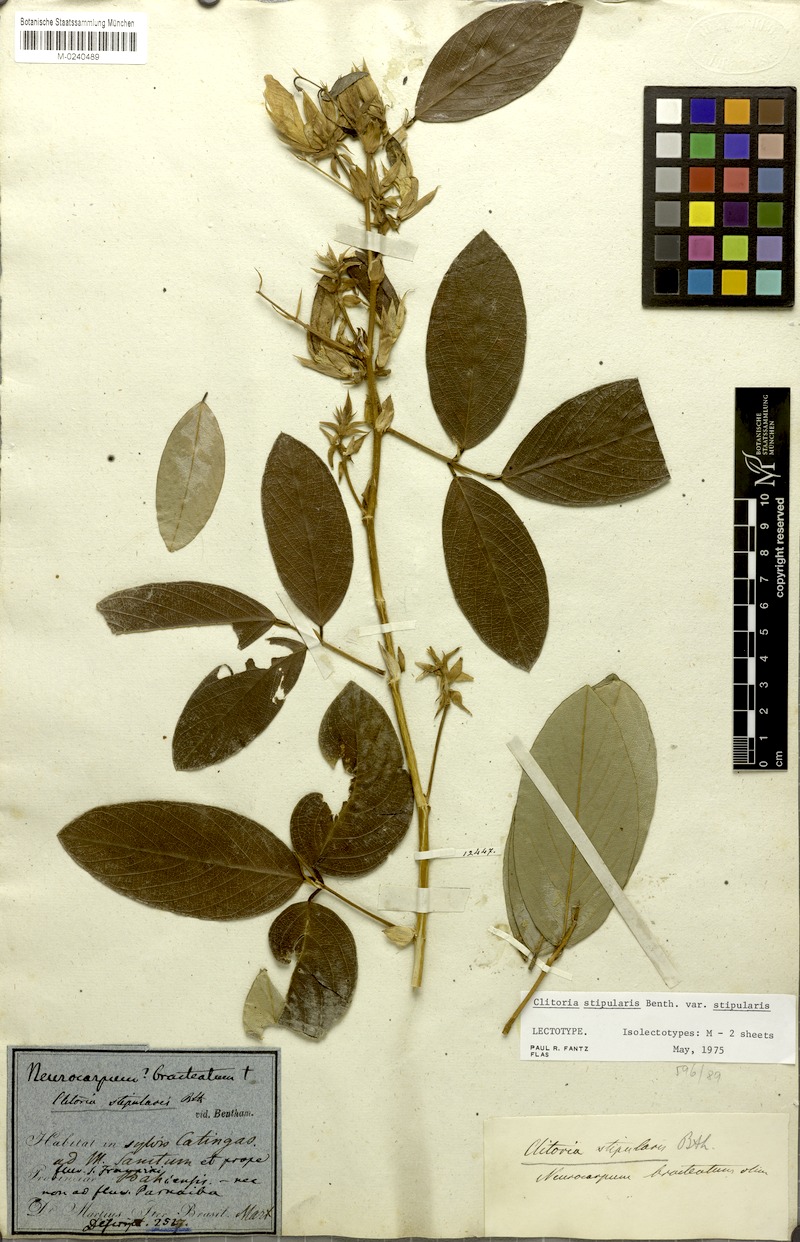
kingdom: Plantae
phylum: Tracheophyta
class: Magnoliopsida
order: Fabales
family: Fabaceae
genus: Clitoria
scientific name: Clitoria stipularis
